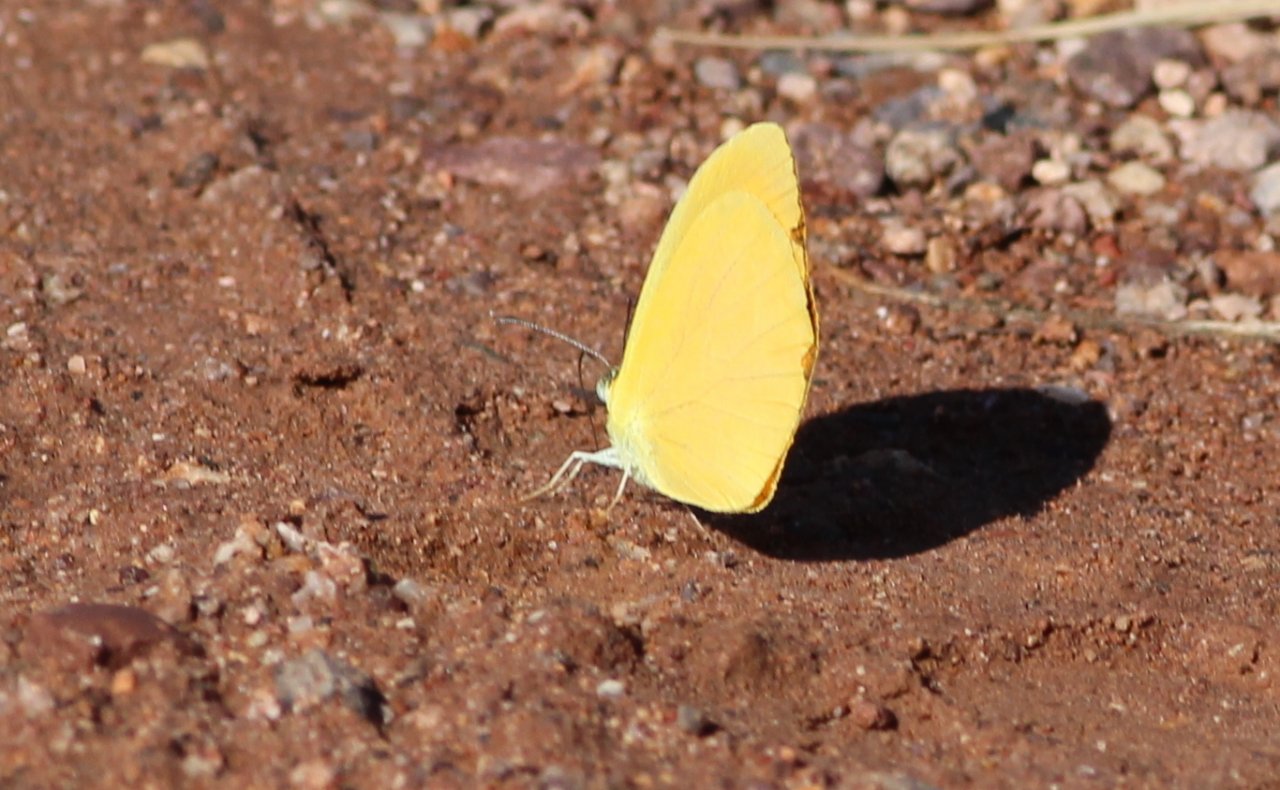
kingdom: Animalia
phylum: Arthropoda
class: Insecta
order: Lepidoptera
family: Pieridae
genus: Pyrisitia
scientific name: Pyrisitia proterpia
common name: Tailed Orange
